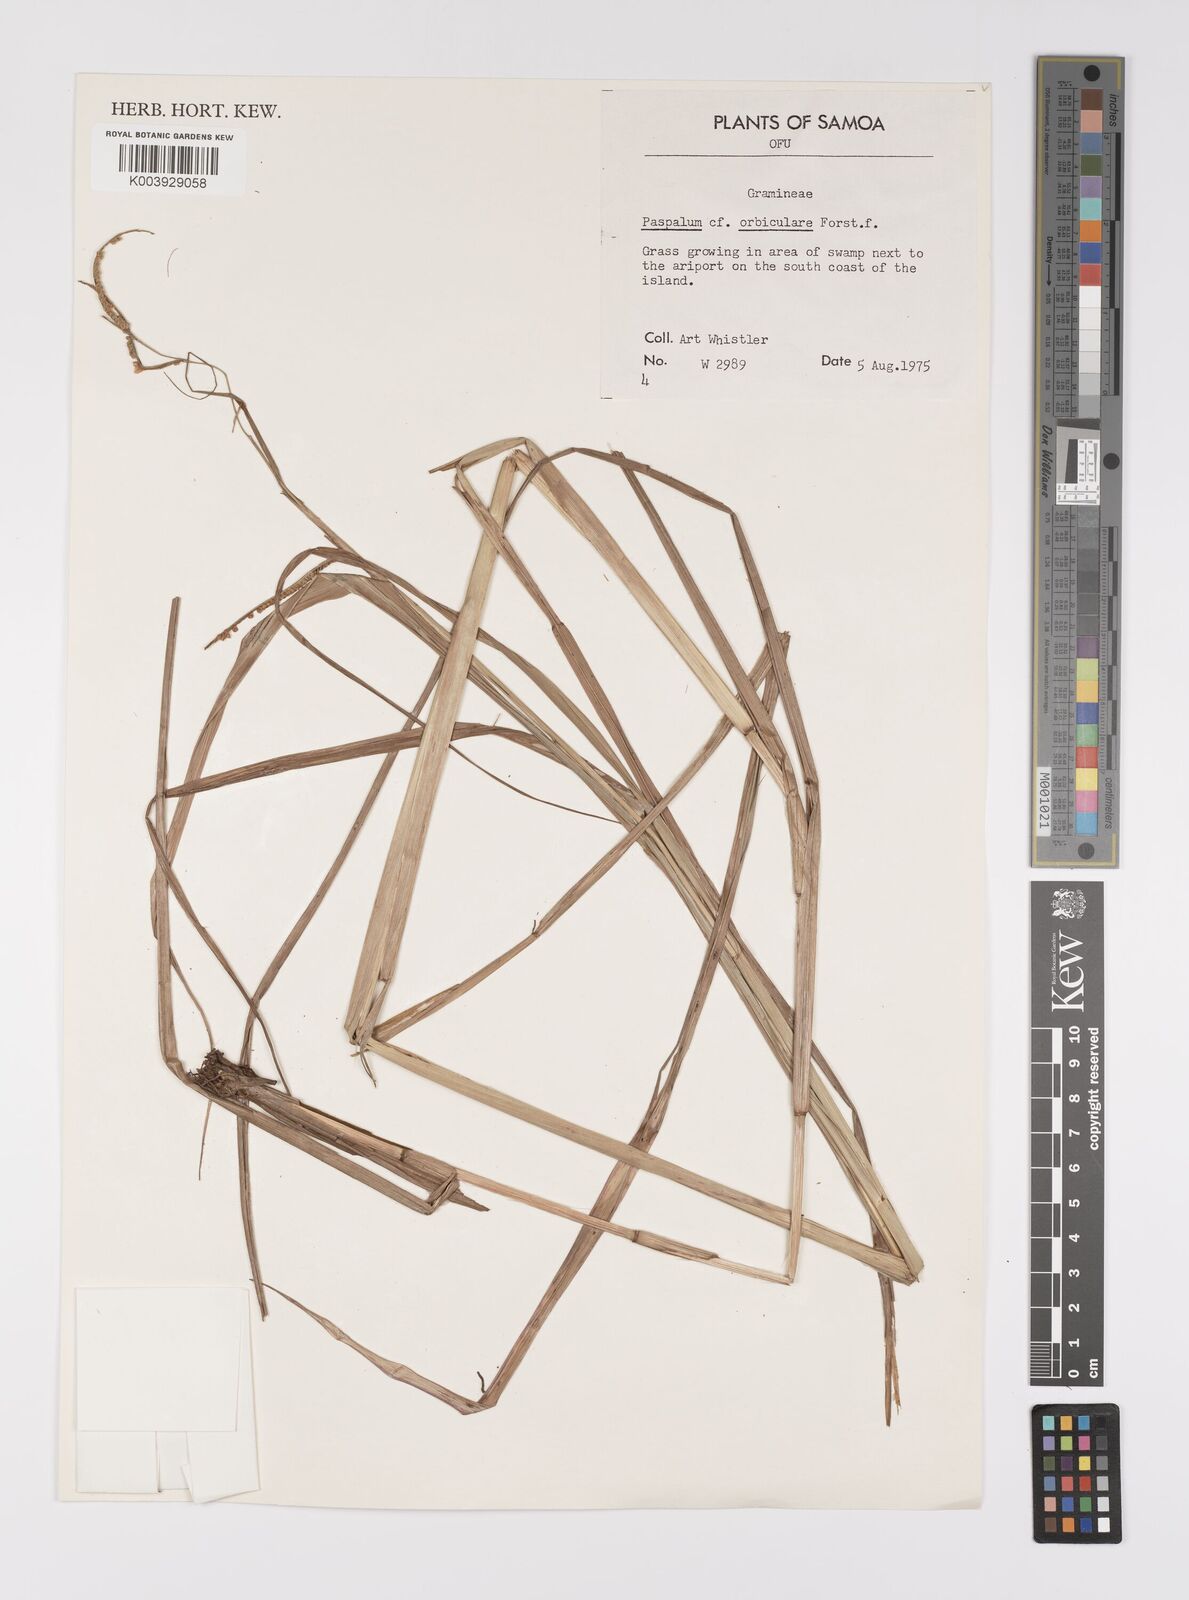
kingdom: Plantae
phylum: Tracheophyta
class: Liliopsida
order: Poales
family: Poaceae
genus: Paspalum
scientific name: Paspalum scrobiculatum
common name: Kodo millet
